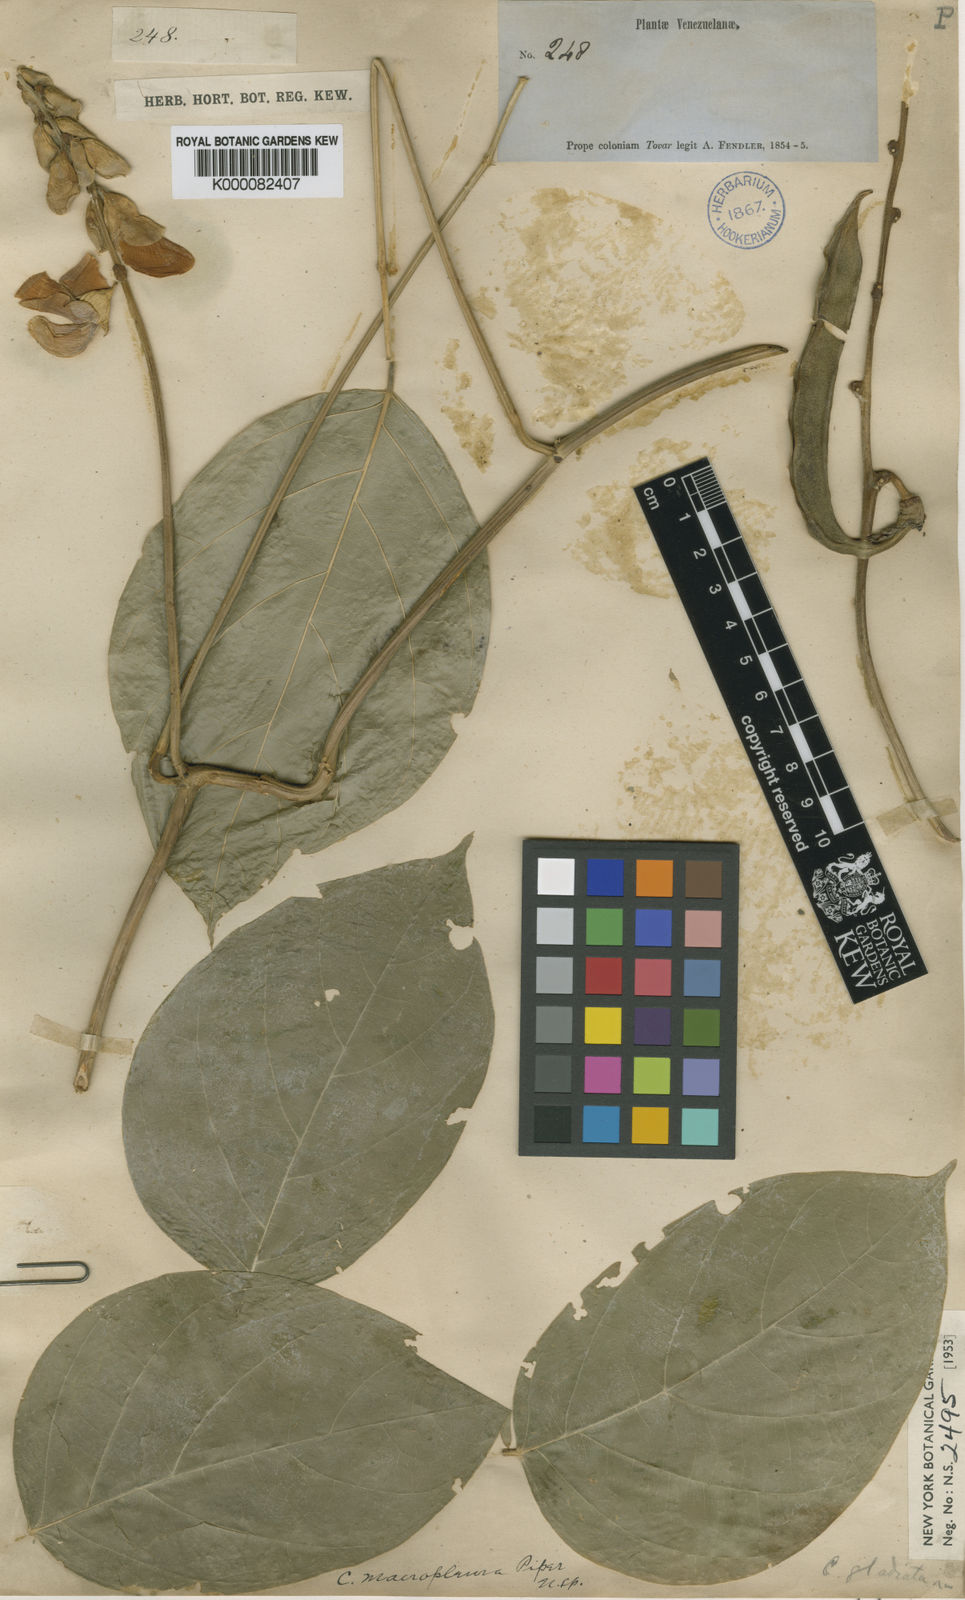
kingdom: Plantae
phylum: Tracheophyta
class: Magnoliopsida
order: Fabales
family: Fabaceae
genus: Canavalia
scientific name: Canavalia macropleura
